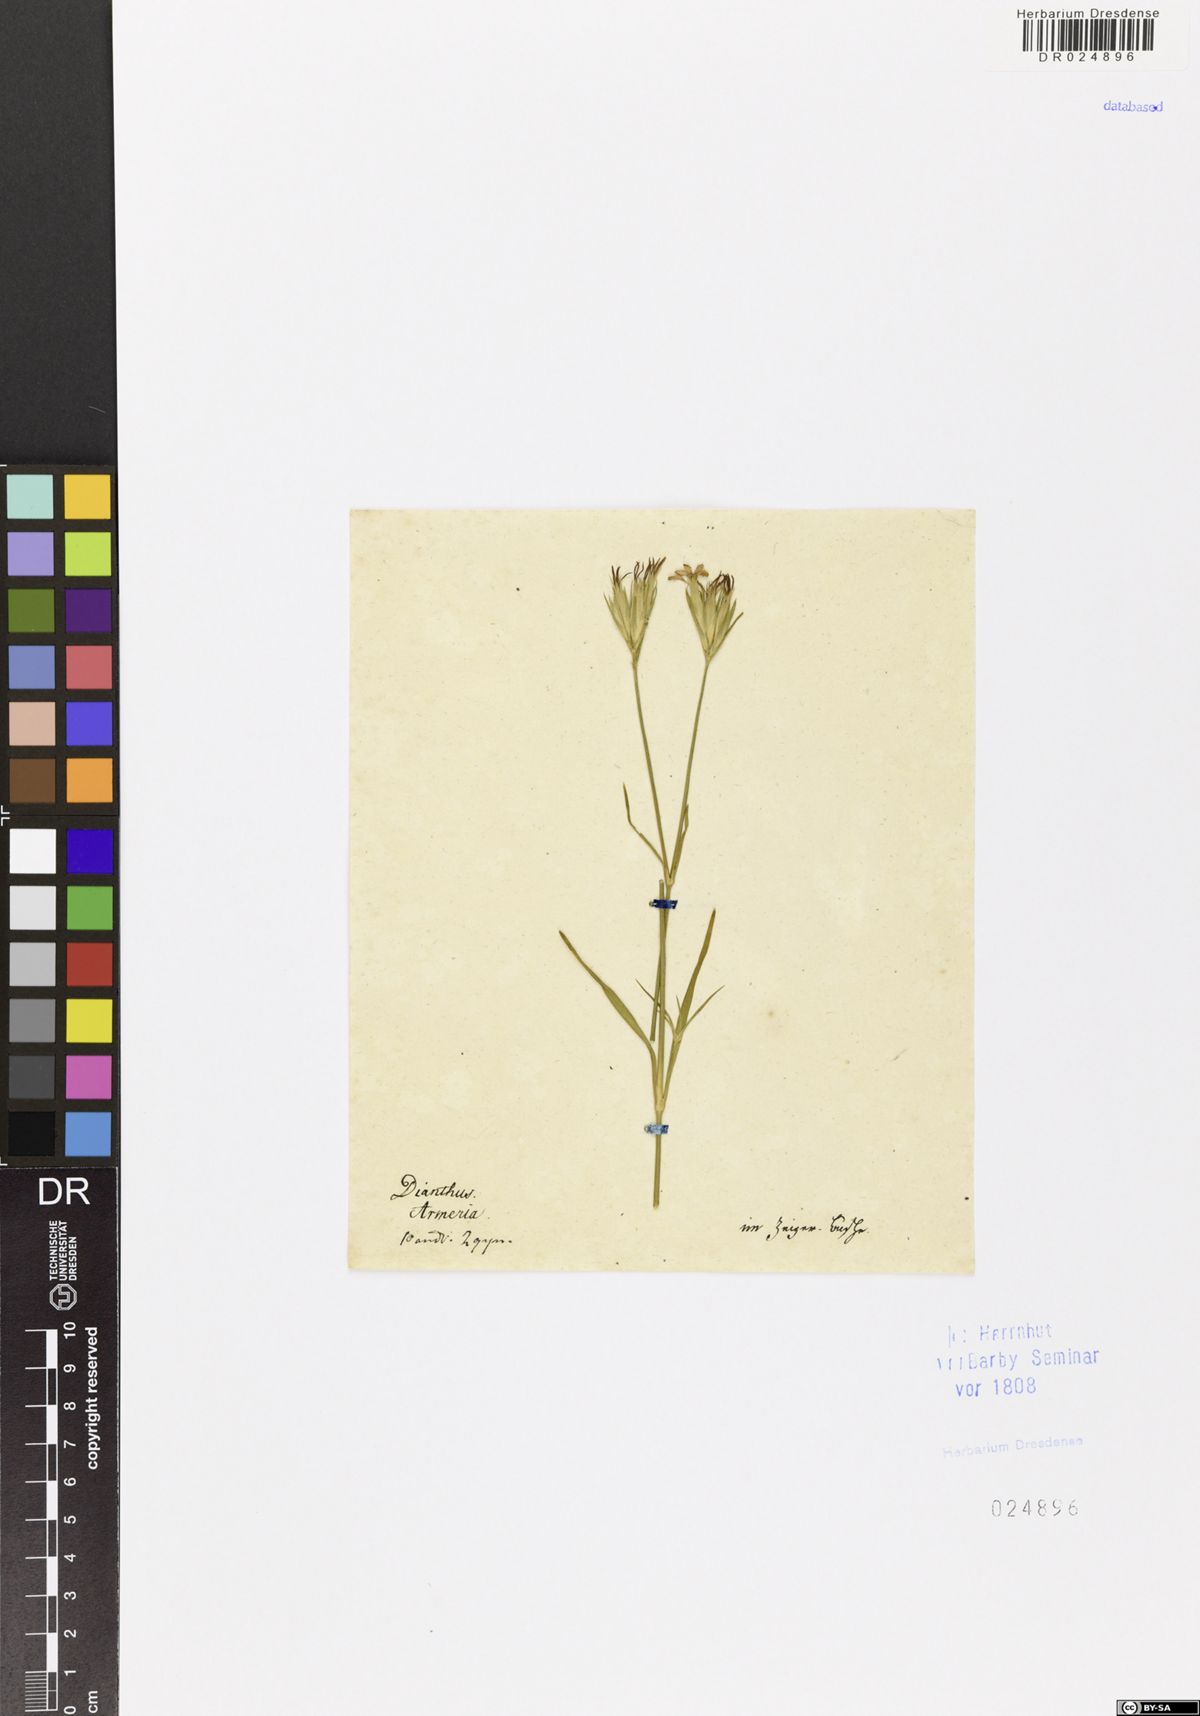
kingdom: Plantae
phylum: Tracheophyta
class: Magnoliopsida
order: Caryophyllales
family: Caryophyllaceae
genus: Dianthus
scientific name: Dianthus armeria
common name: Deptford pink
